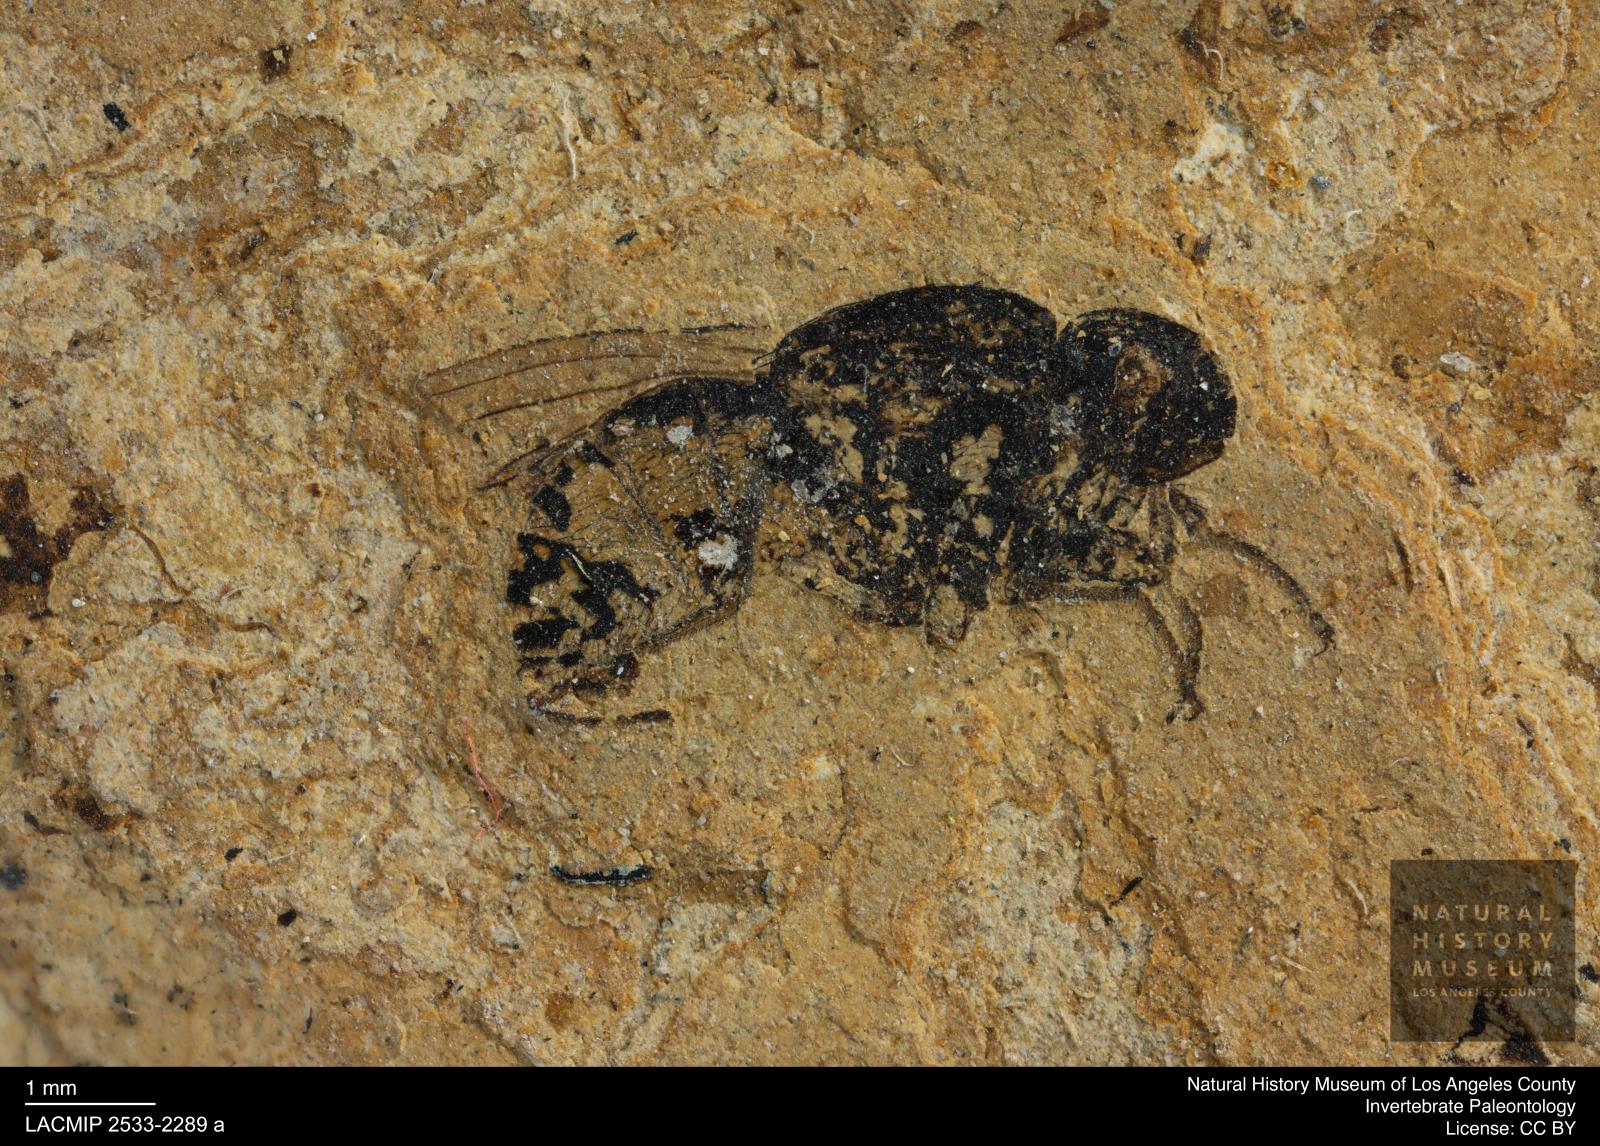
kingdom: Animalia
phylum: Arthropoda
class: Insecta
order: Diptera
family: Heleomyzidae
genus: Heleomyza
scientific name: Heleomyza Leria bauckhorni
